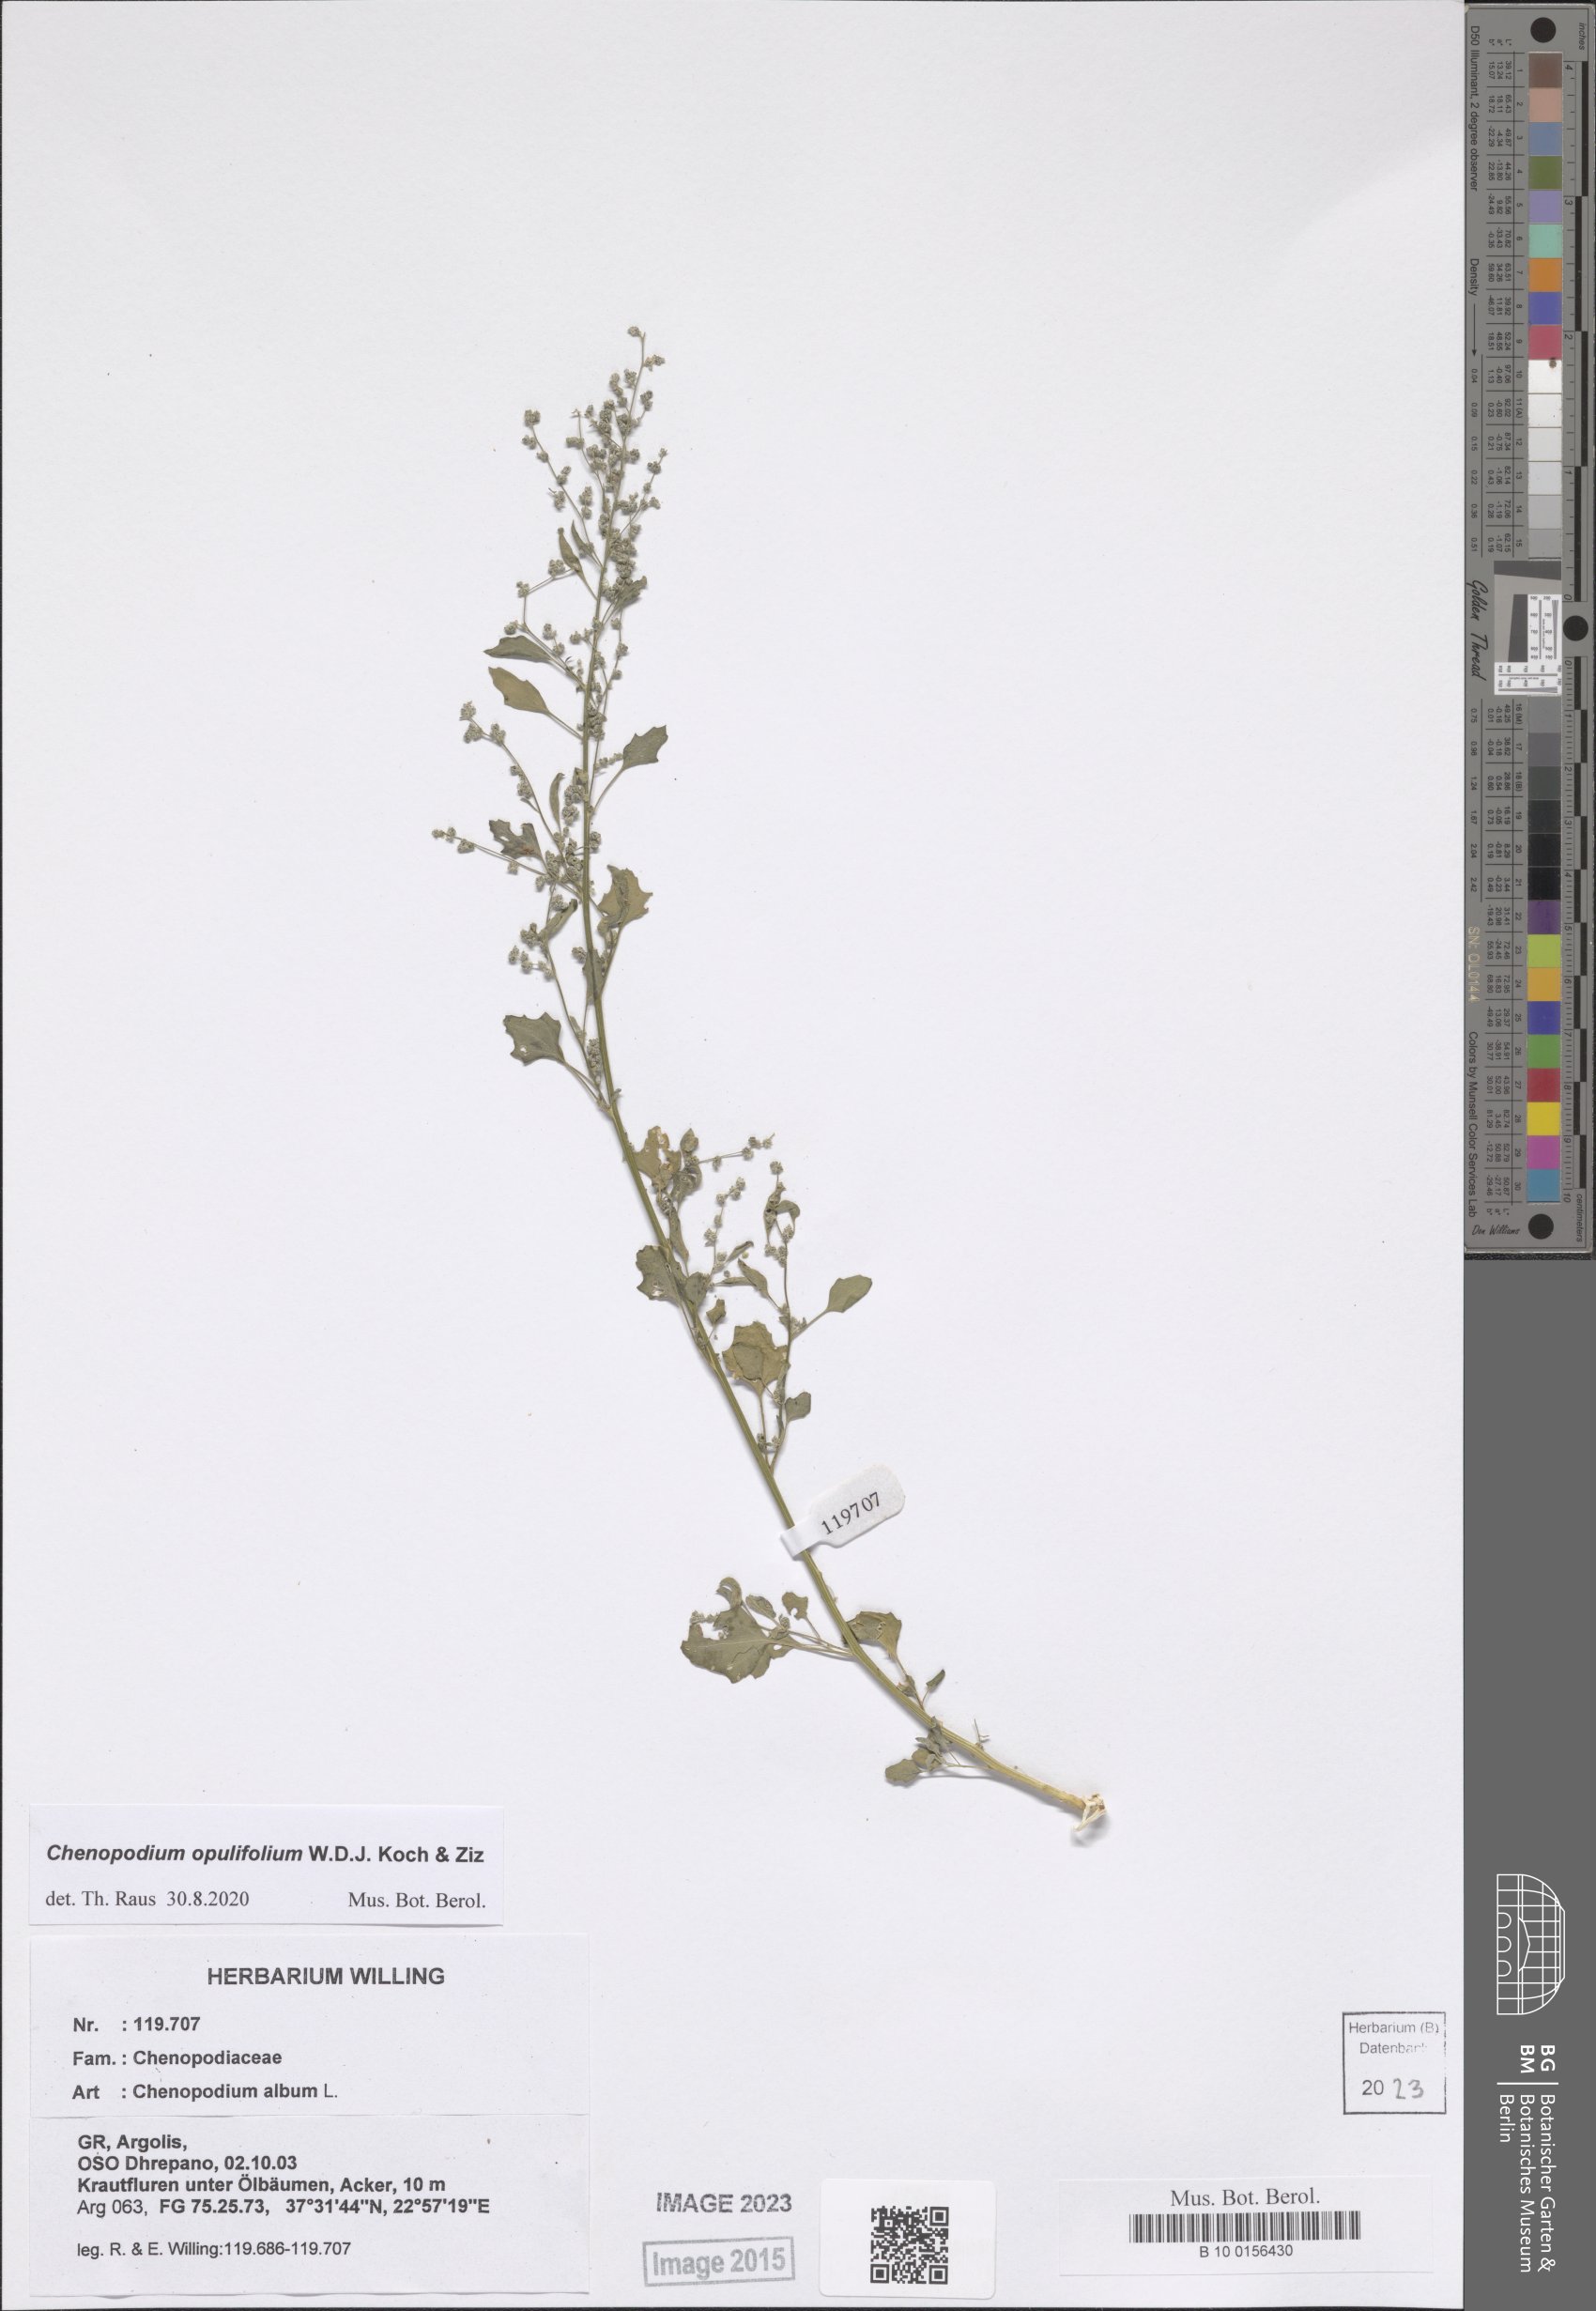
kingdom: Plantae
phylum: Tracheophyta
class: Magnoliopsida
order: Caryophyllales
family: Amaranthaceae
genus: Chenopodium
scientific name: Chenopodium opulifolium
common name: Grey goosefoot
